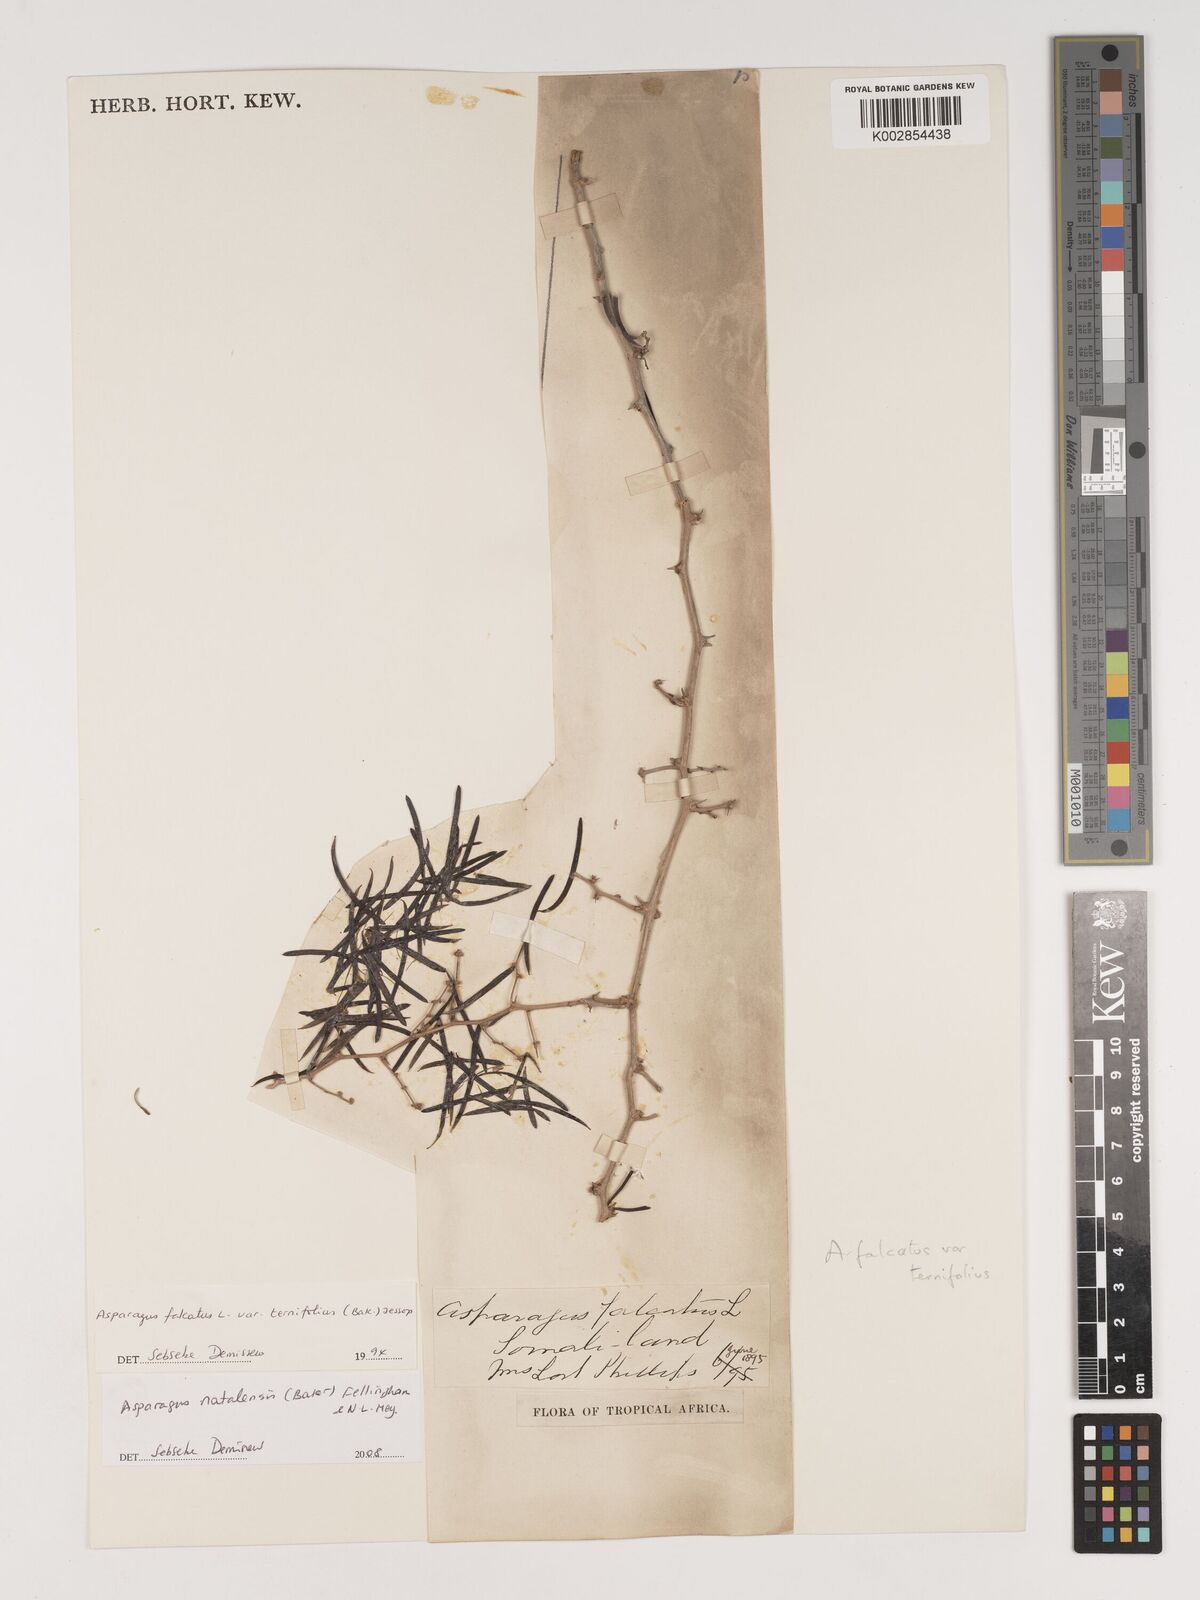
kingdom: Plantae
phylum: Tracheophyta
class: Liliopsida
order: Asparagales
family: Asparagaceae
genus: Asparagus
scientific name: Asparagus natalensis
